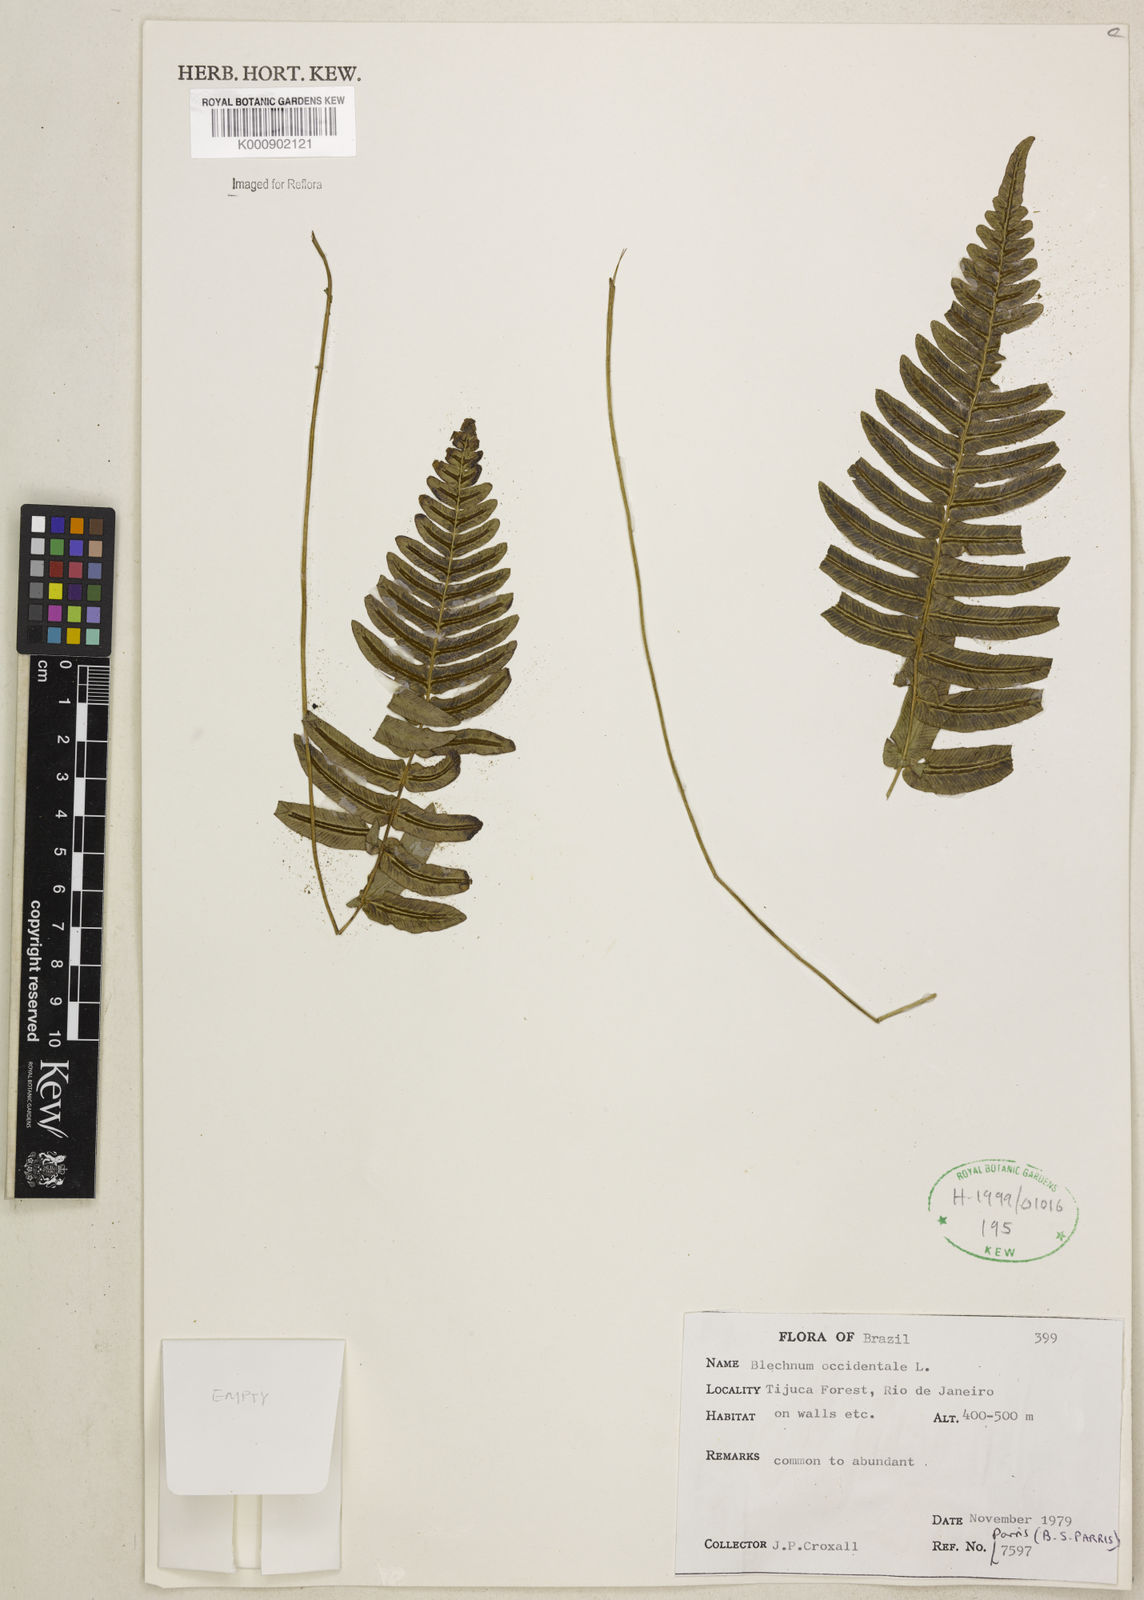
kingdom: Plantae
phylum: Tracheophyta
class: Polypodiopsida
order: Polypodiales
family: Blechnaceae
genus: Blechnum
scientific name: Blechnum occidentale
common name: Hammock fern
